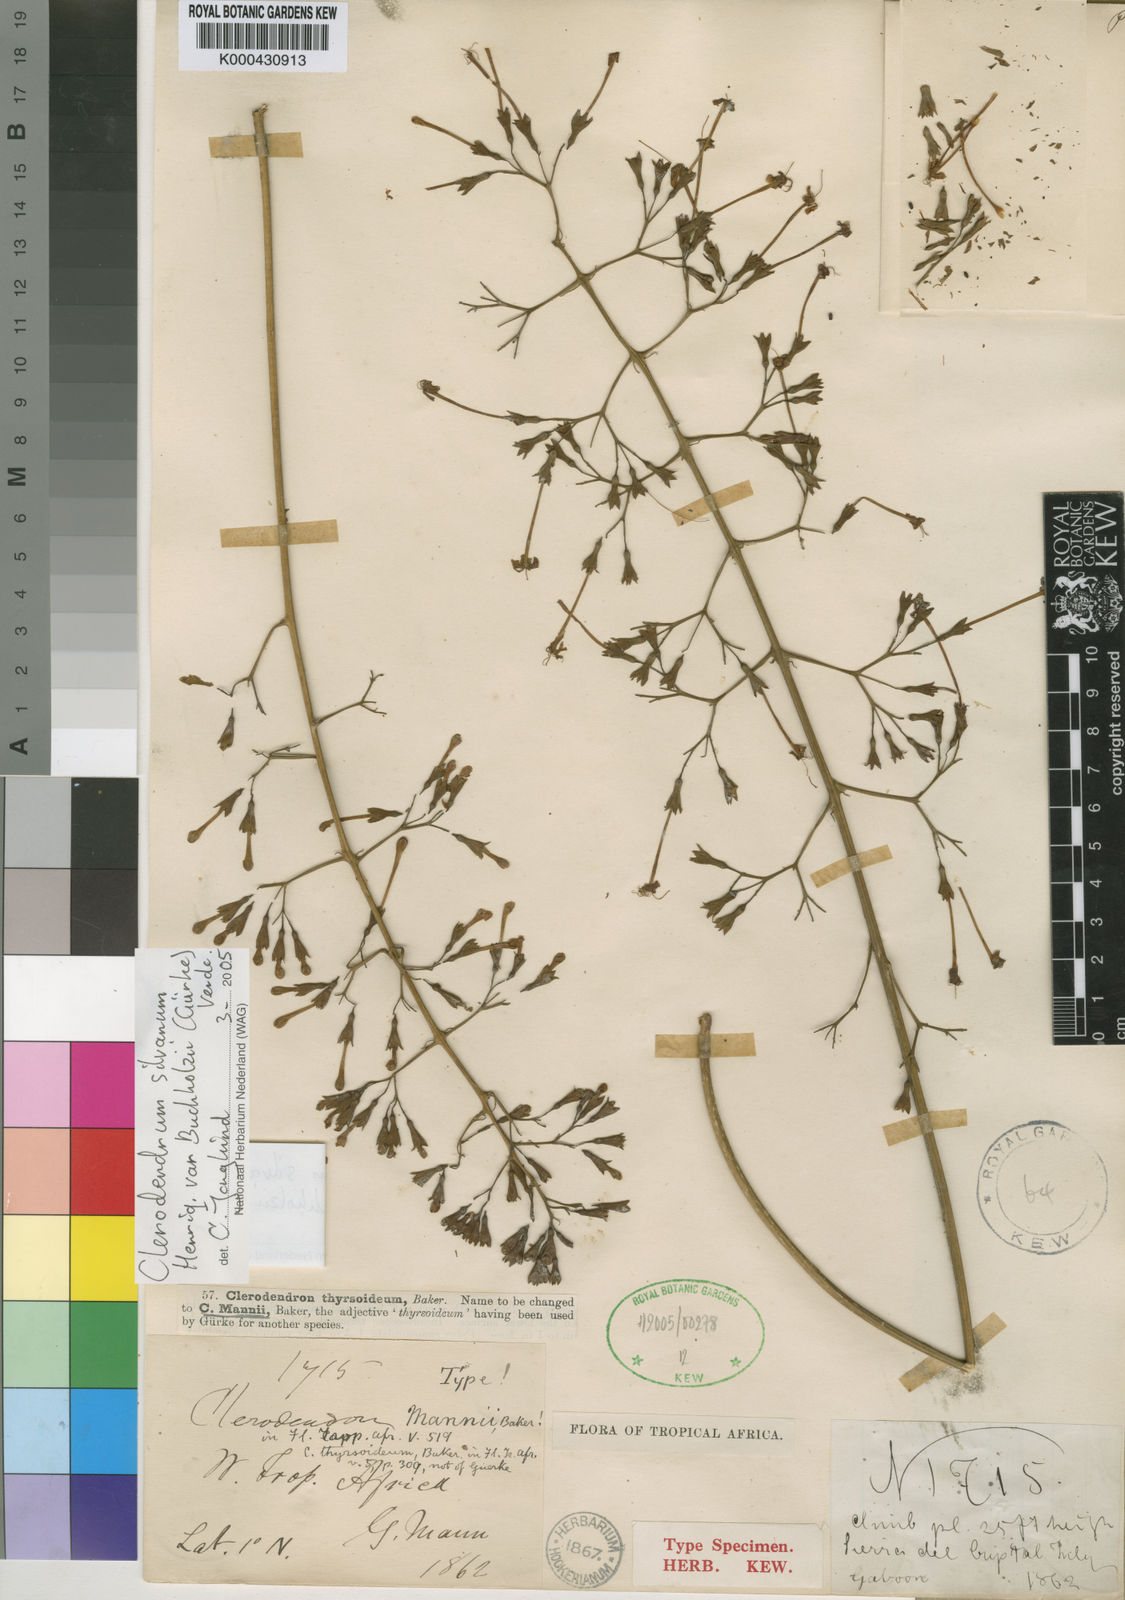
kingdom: Plantae
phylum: Tracheophyta
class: Magnoliopsida
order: Lamiales
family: Lamiaceae
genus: Clerodendrum
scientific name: Clerodendrum silvanum
